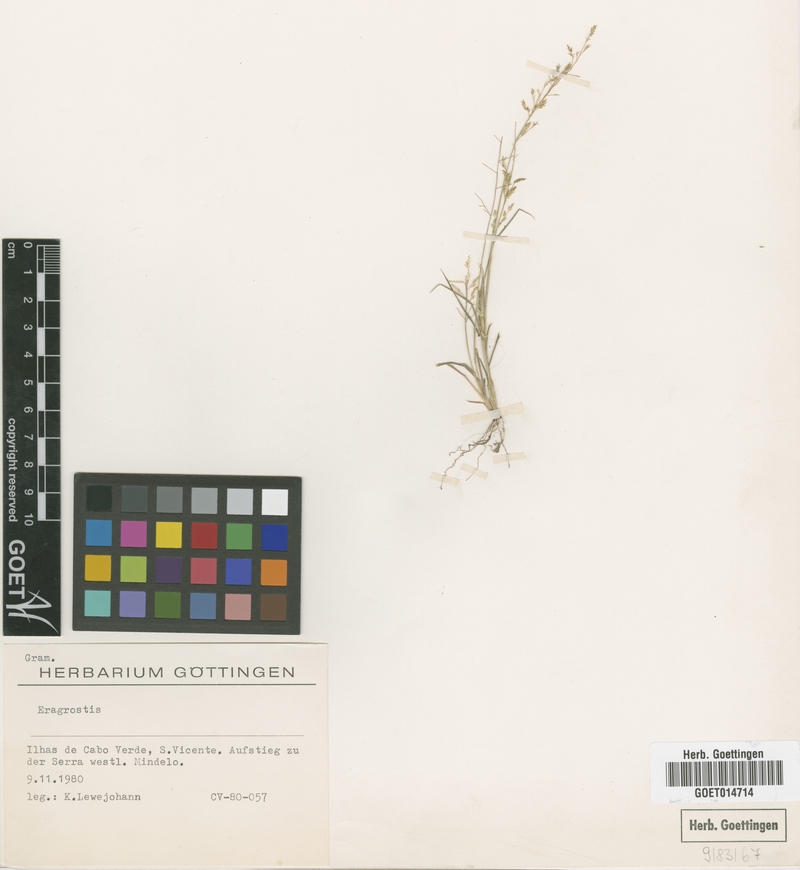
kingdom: Plantae
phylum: Tracheophyta
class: Liliopsida
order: Poales
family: Poaceae
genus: Eragrostis
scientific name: Eragrostis
